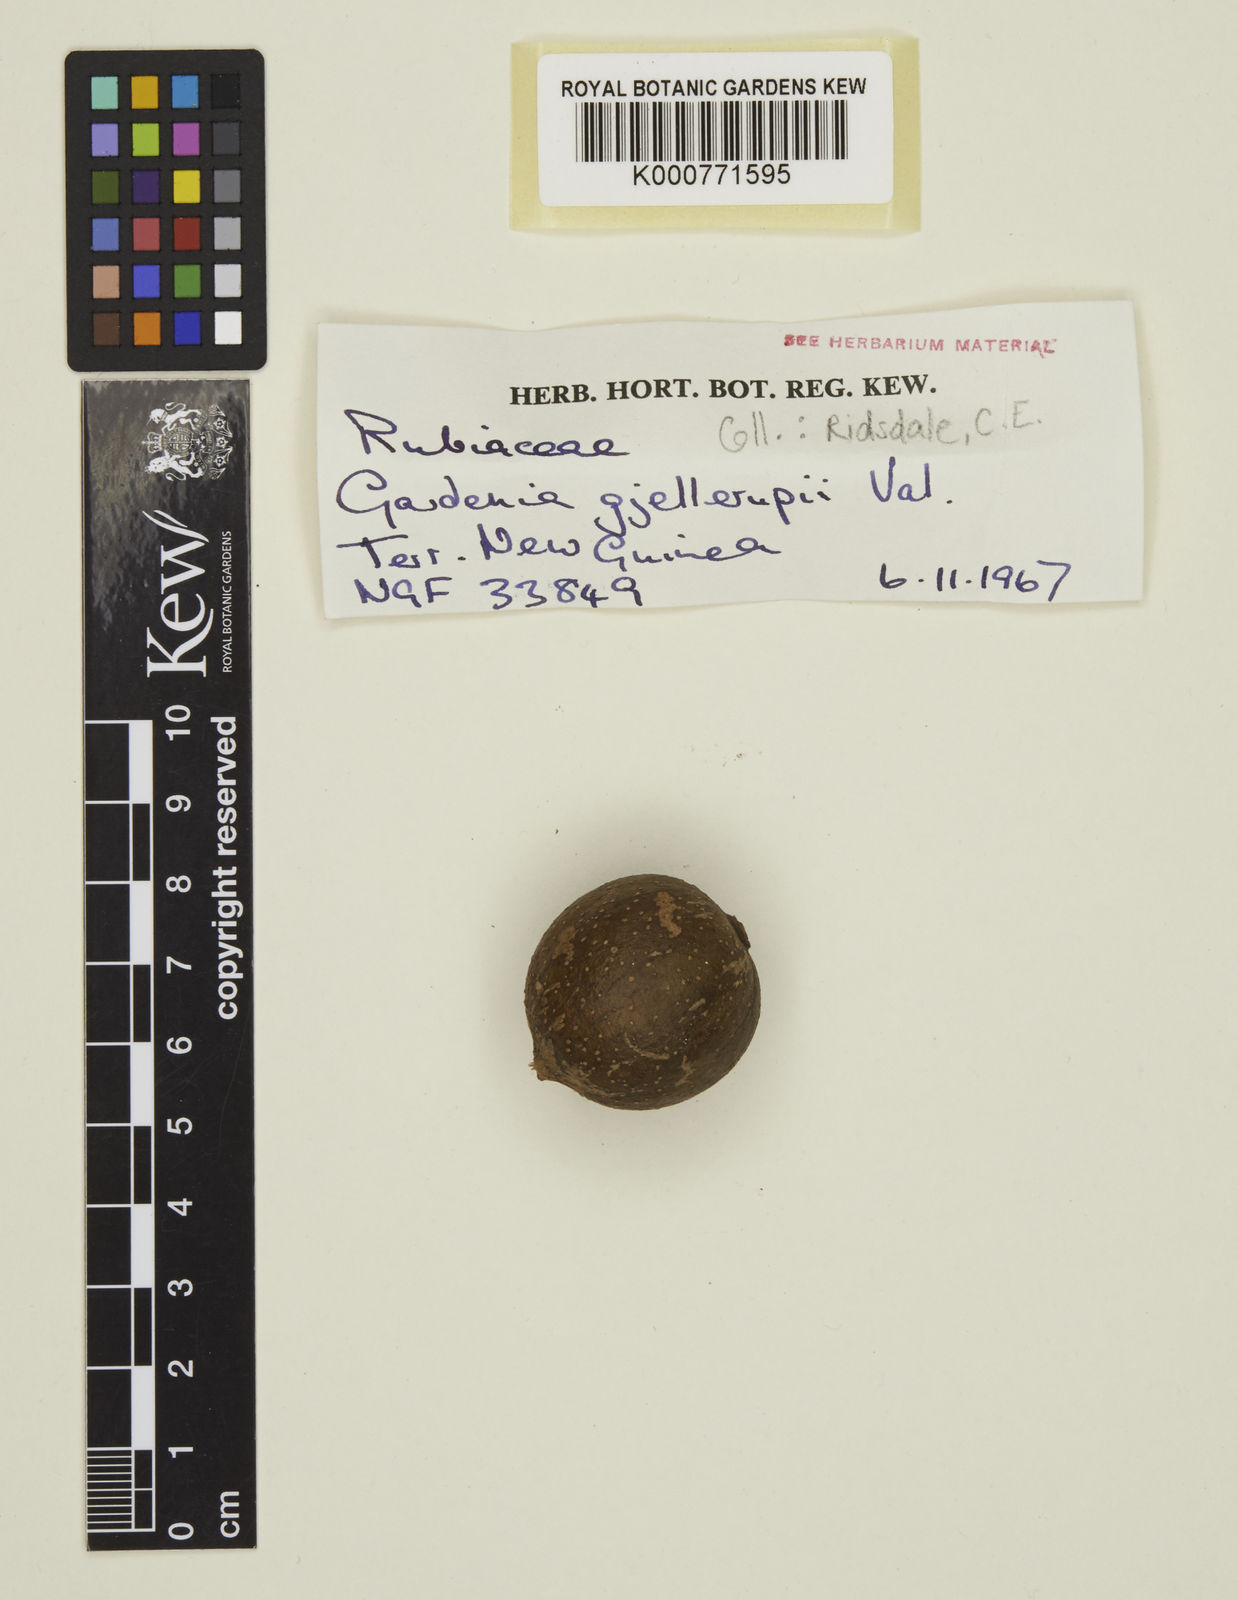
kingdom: Plantae
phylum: Tracheophyta
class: Magnoliopsida
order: Gentianales
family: Rubiaceae
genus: Gardenia
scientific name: Gardenia gjellerupii
